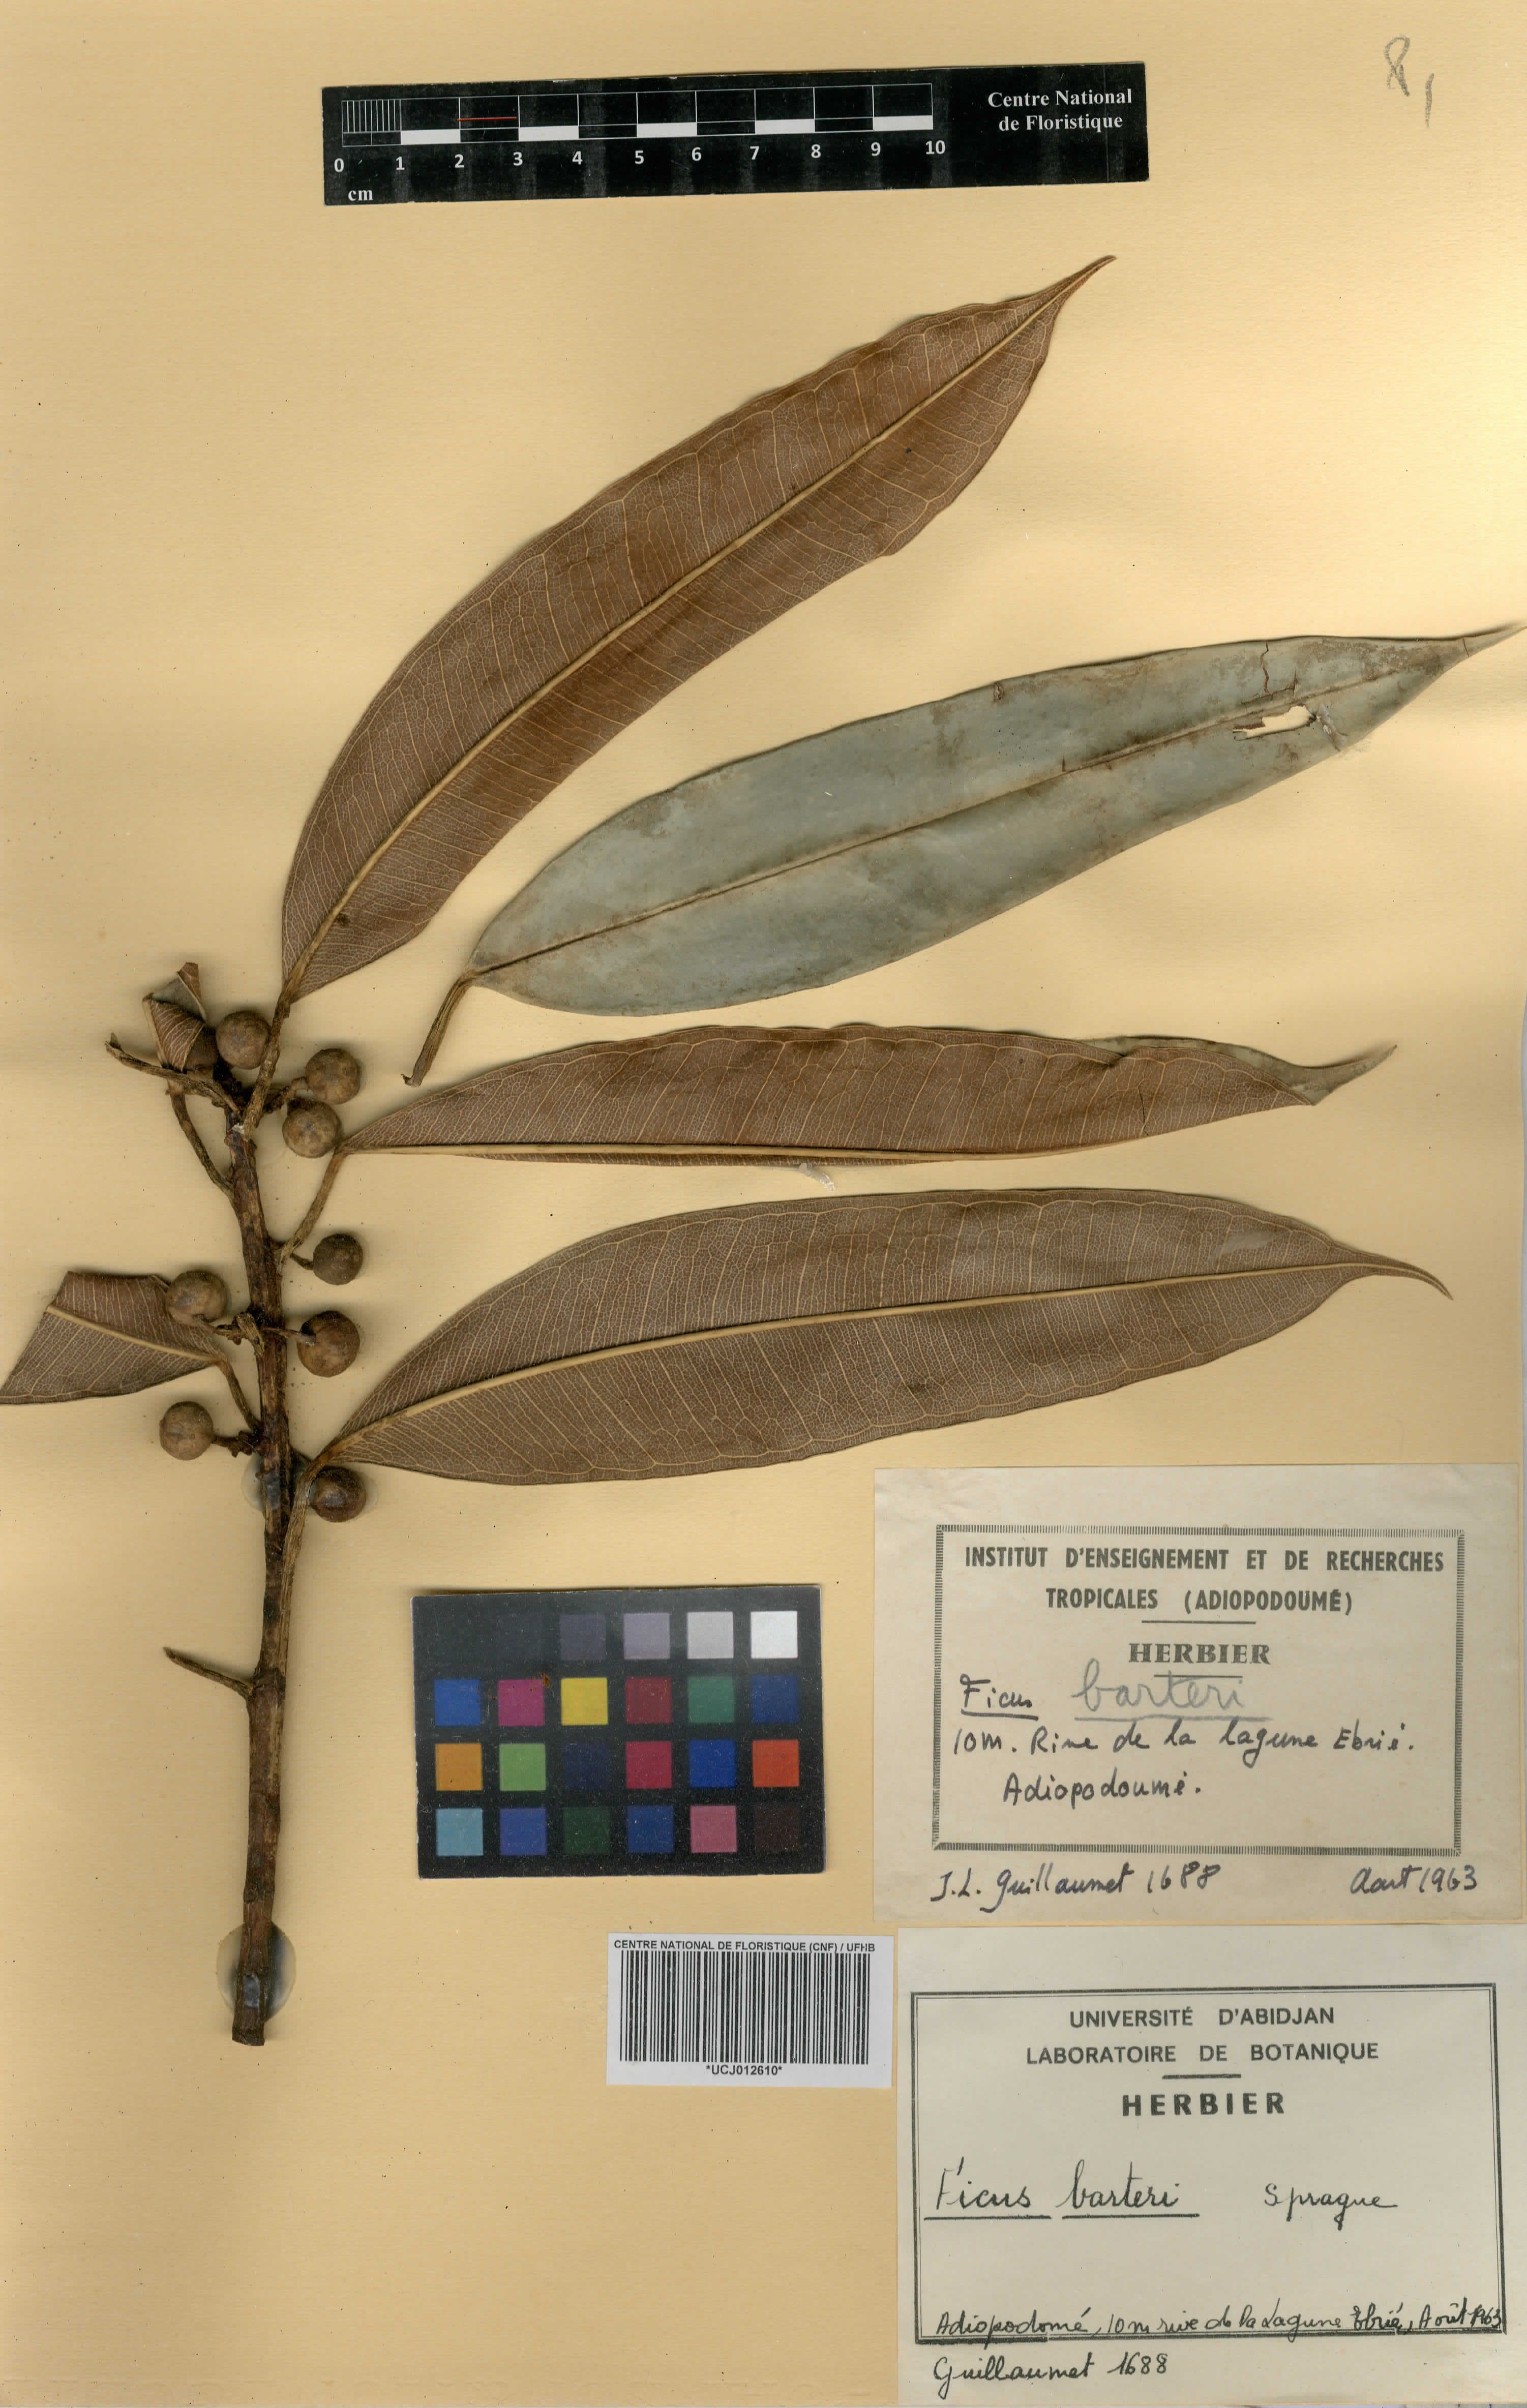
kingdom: Plantae
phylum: Tracheophyta
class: Magnoliopsida
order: Rosales
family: Moraceae
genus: Ficus
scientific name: Ficus barteri
